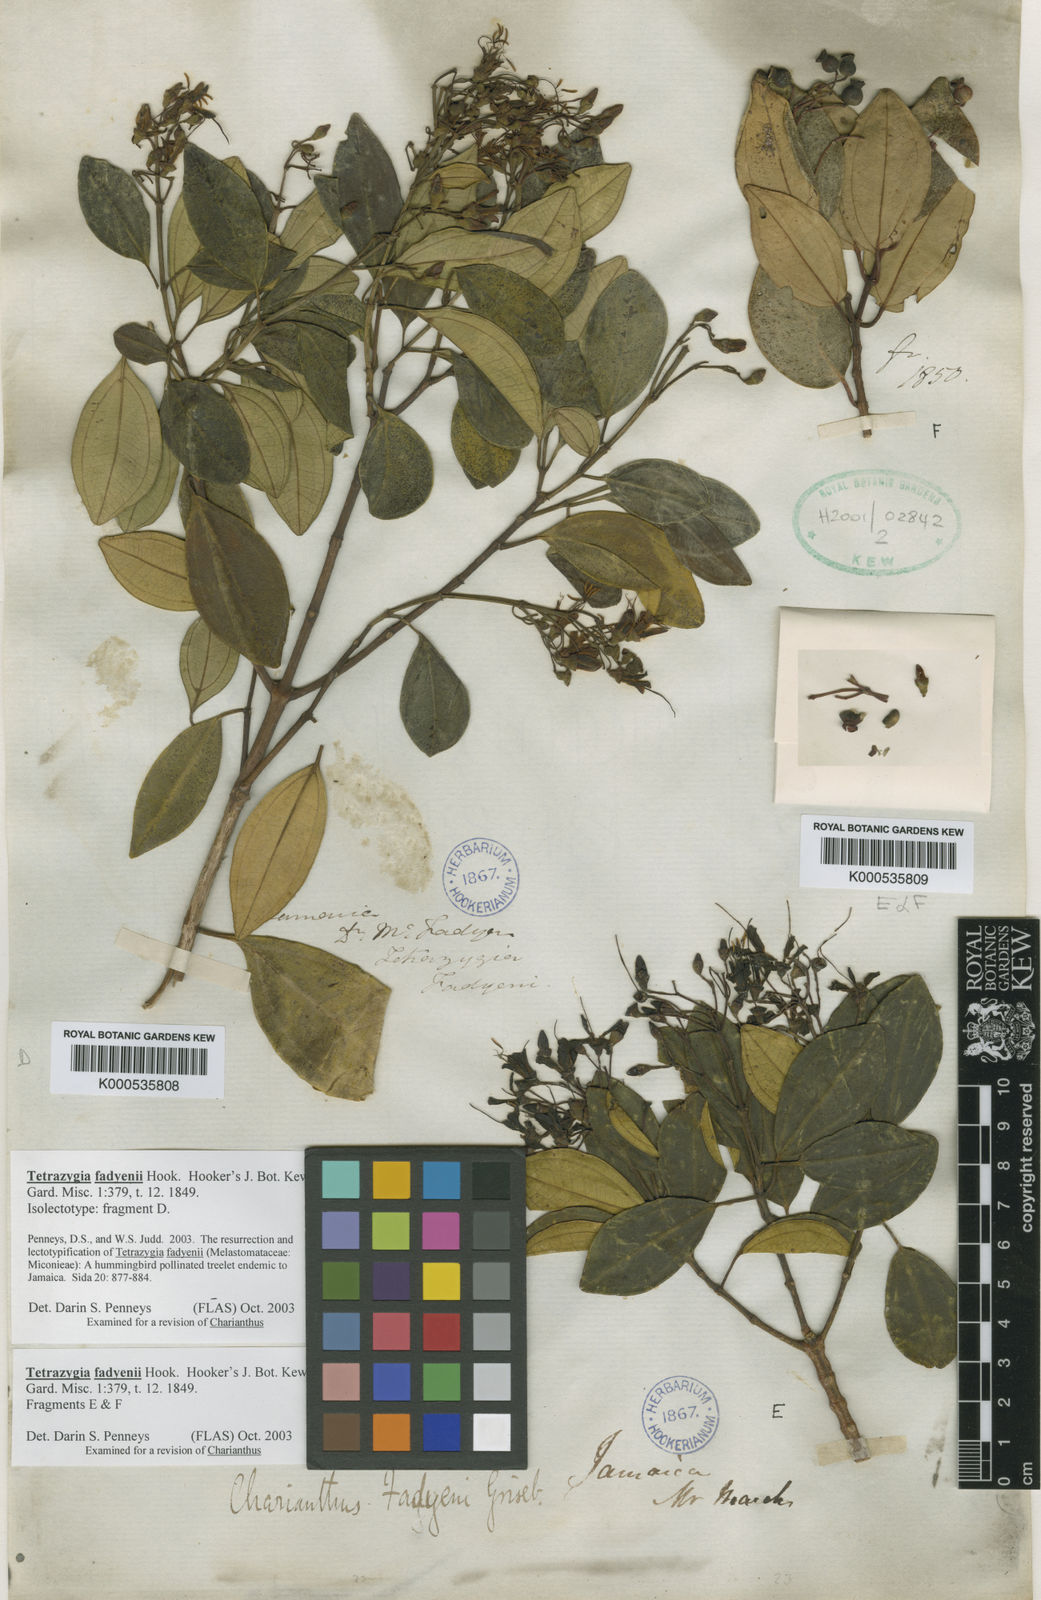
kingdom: Plantae
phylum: Tracheophyta
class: Magnoliopsida
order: Myrtales
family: Melastomataceae
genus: Miconia
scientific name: Miconia fadyenii
